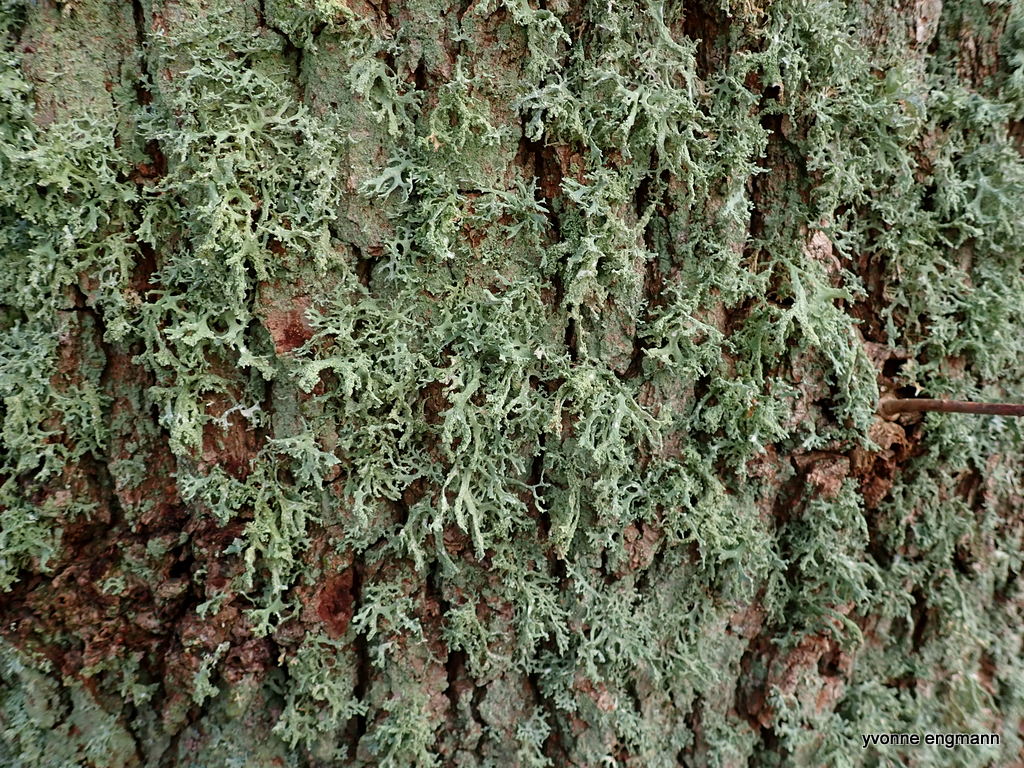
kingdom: Fungi
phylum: Ascomycota
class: Lecanoromycetes
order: Lecanorales
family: Parmeliaceae
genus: Evernia
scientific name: Evernia prunastri
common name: almindelig slåenlav
